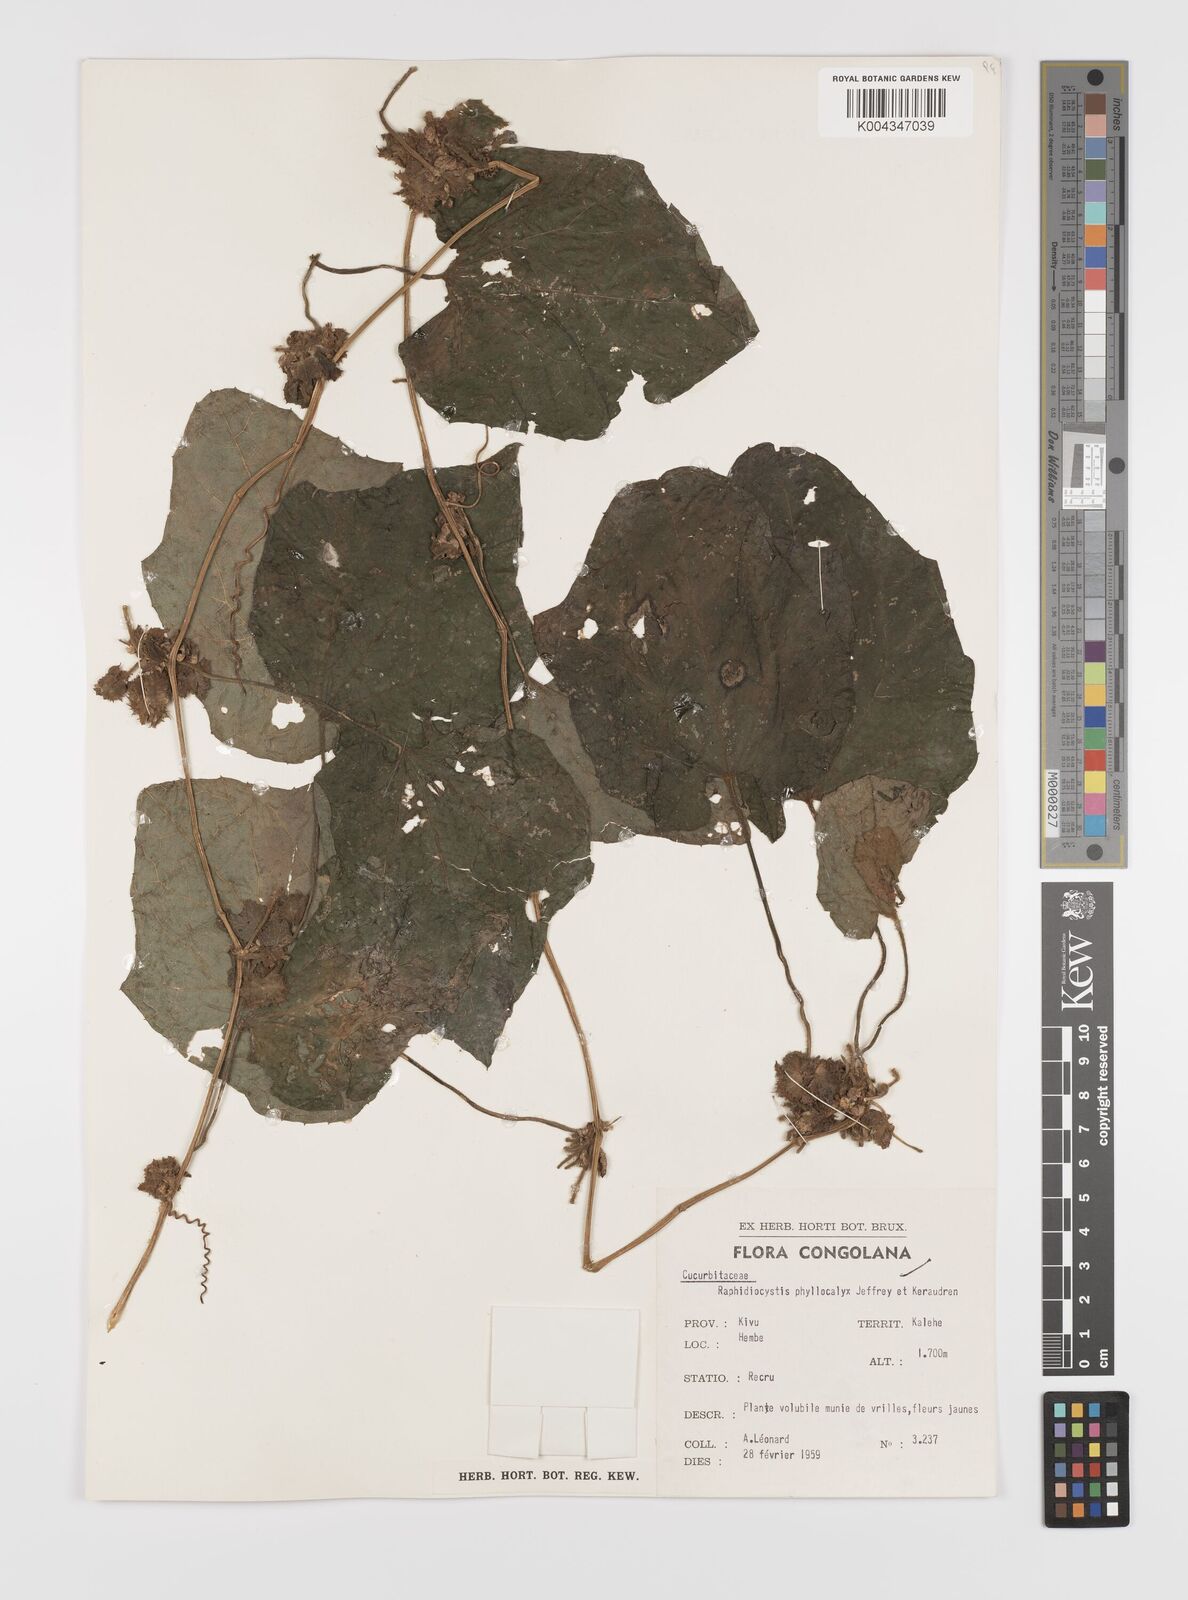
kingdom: Plantae
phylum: Tracheophyta
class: Magnoliopsida
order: Cucurbitales
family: Cucurbitaceae
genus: Raphidiocystis
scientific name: Raphidiocystis phyllocalyx
